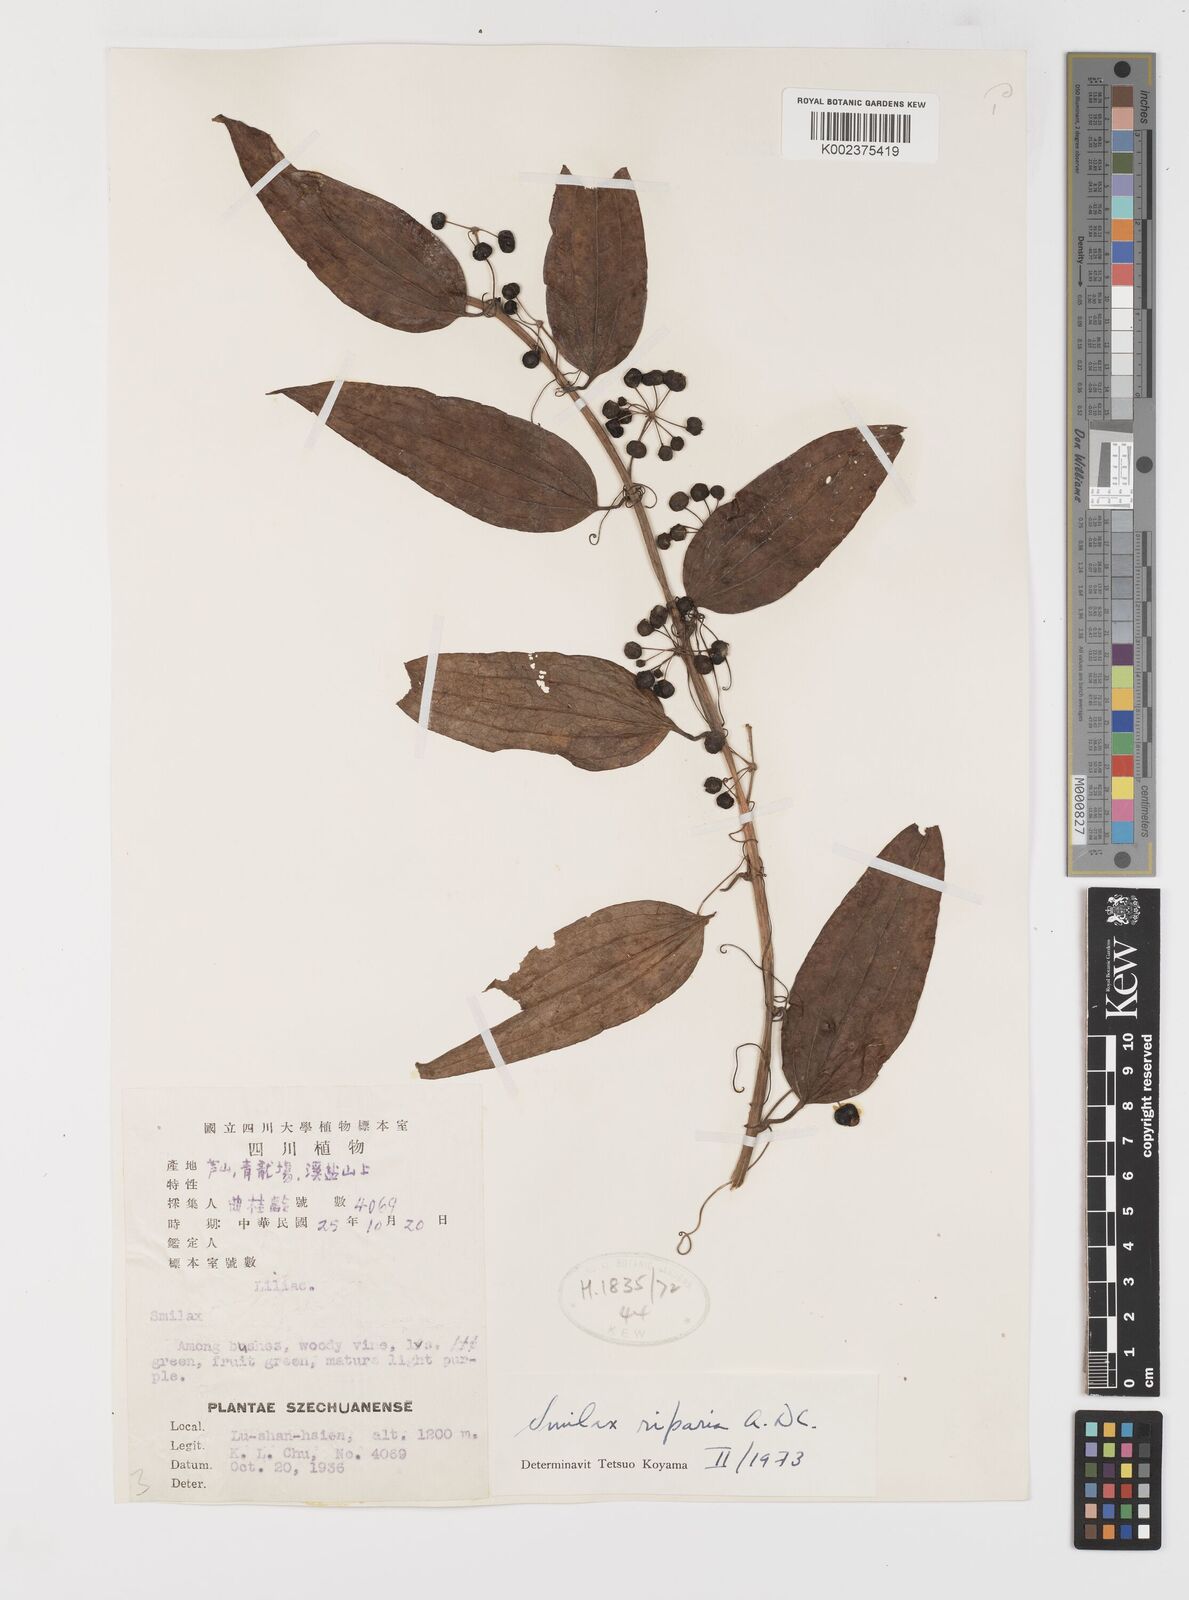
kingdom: Plantae
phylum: Tracheophyta
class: Liliopsida
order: Liliales
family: Smilacaceae
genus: Smilax
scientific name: Smilax riparia
